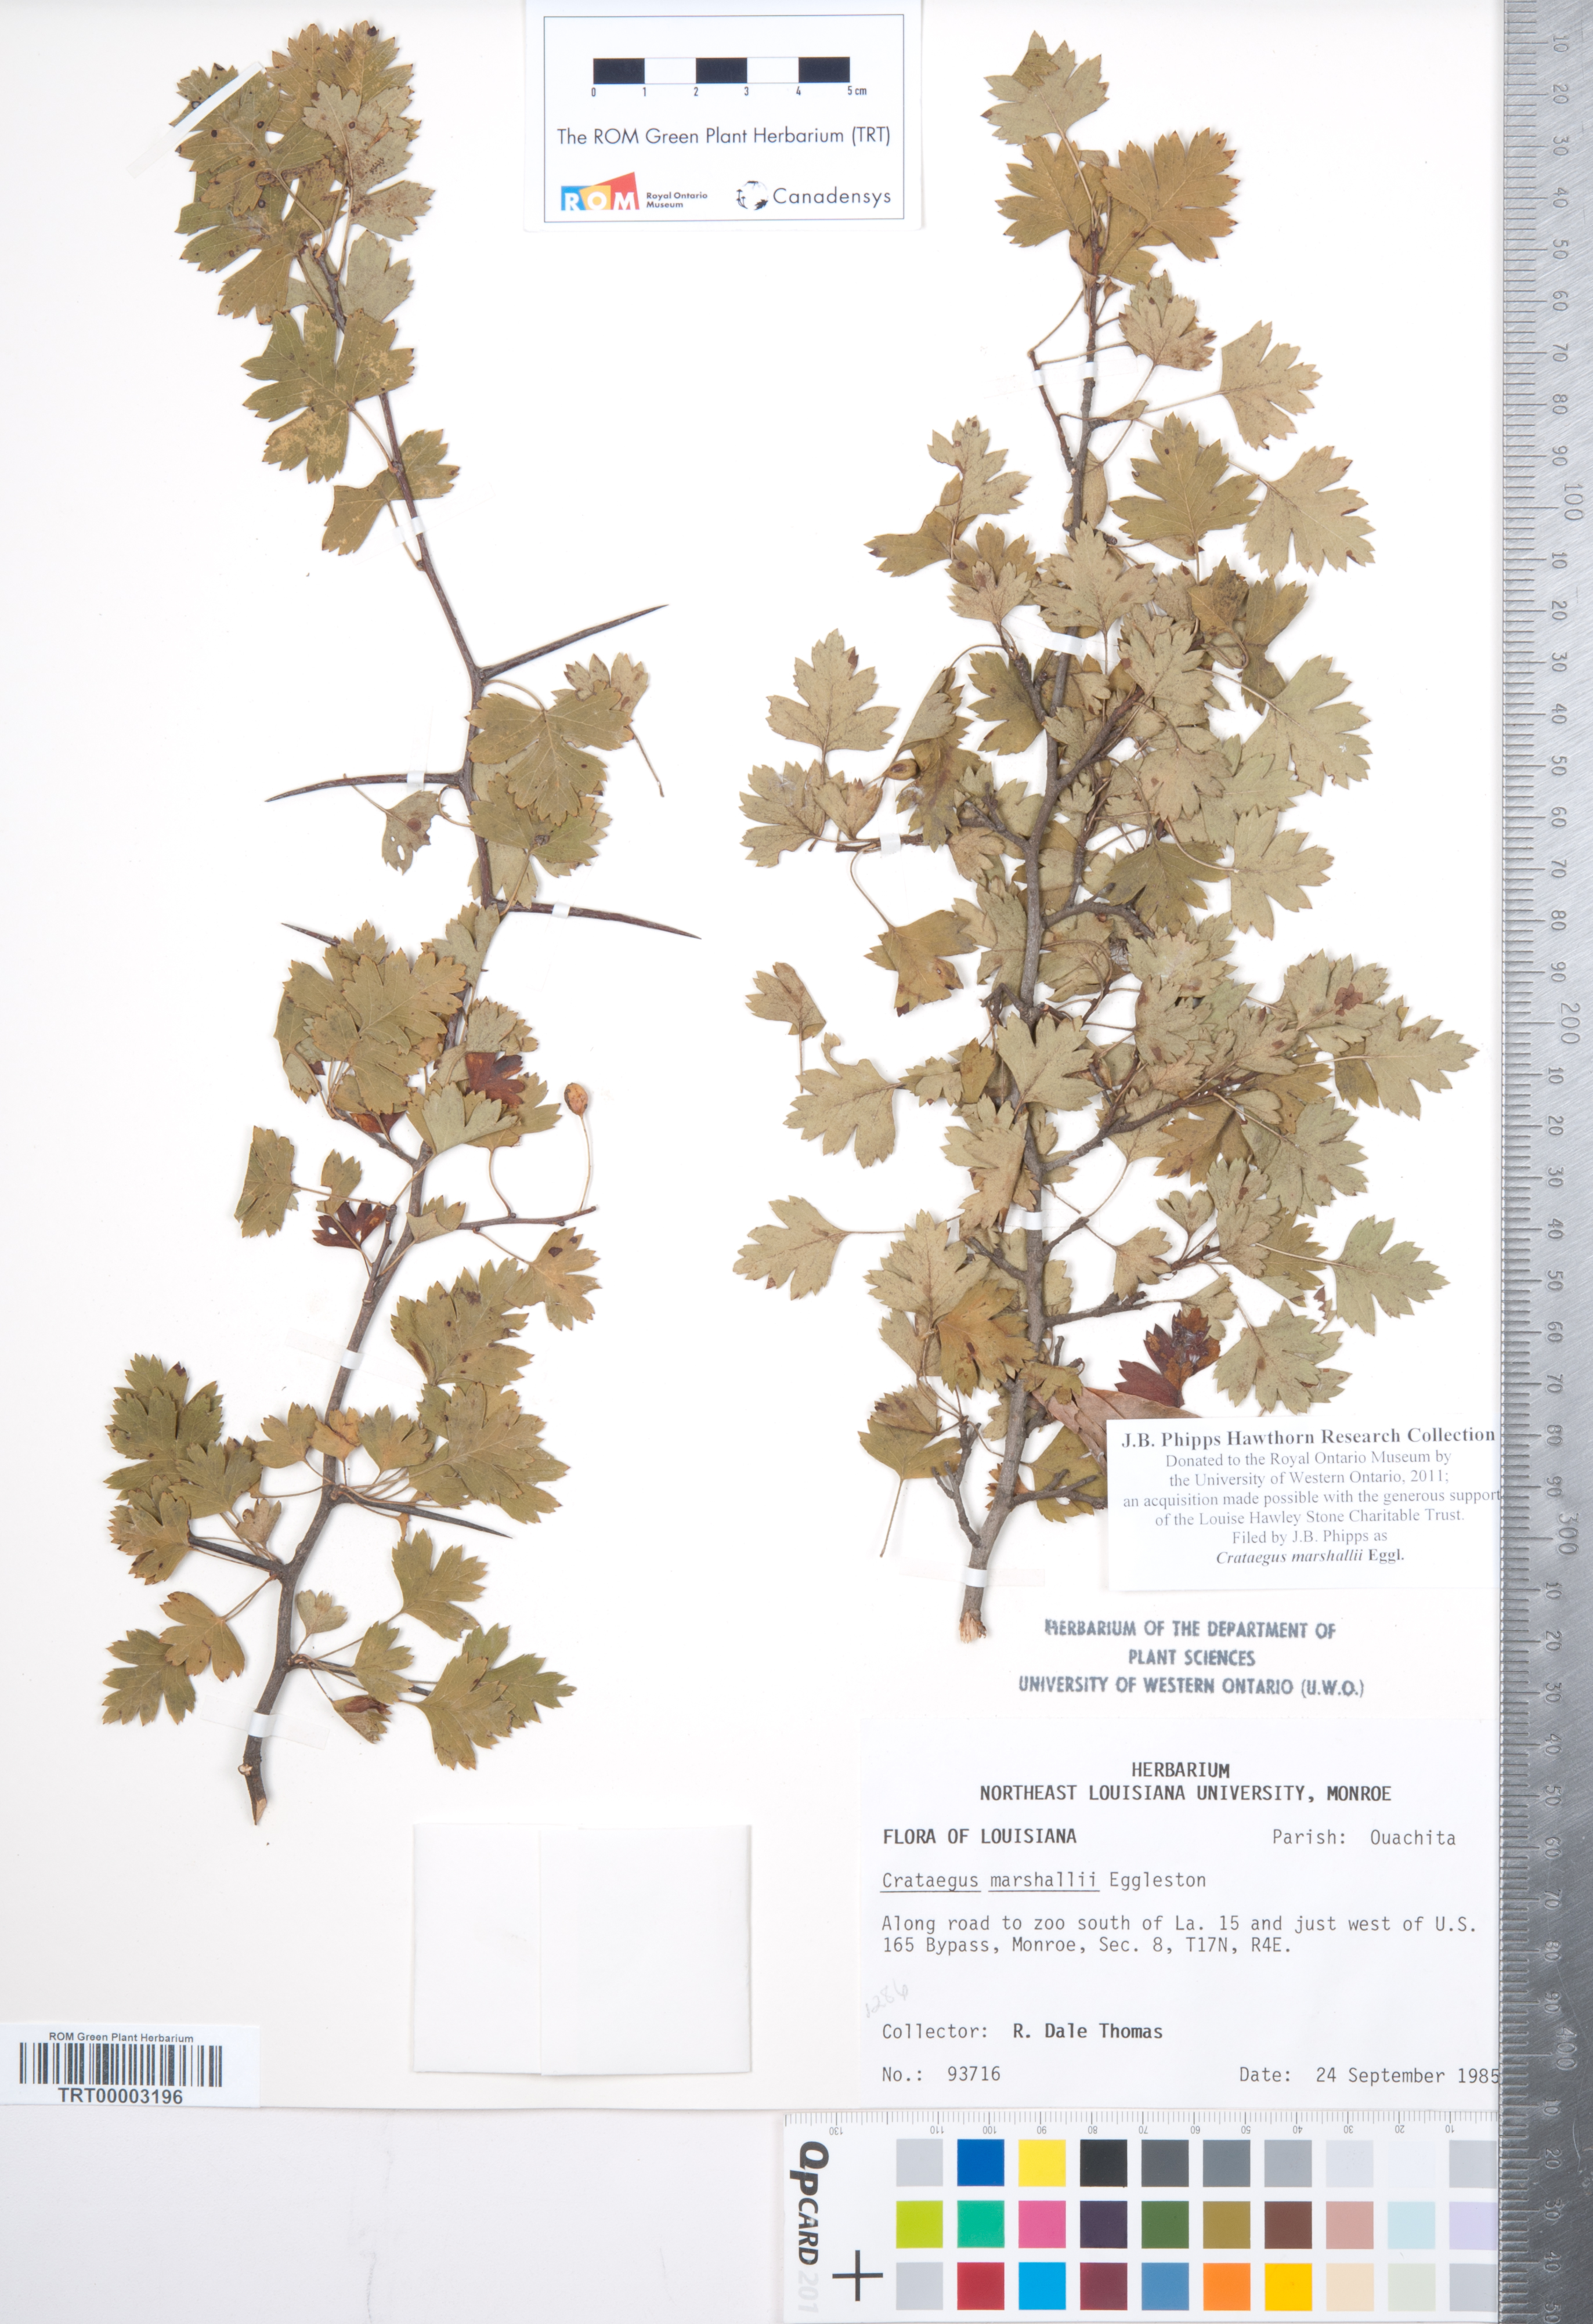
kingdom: Plantae
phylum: Tracheophyta
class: Magnoliopsida
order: Rosales
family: Rosaceae
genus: Crataegus
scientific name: Crataegus marshallii
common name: Parsley-hawthorn
